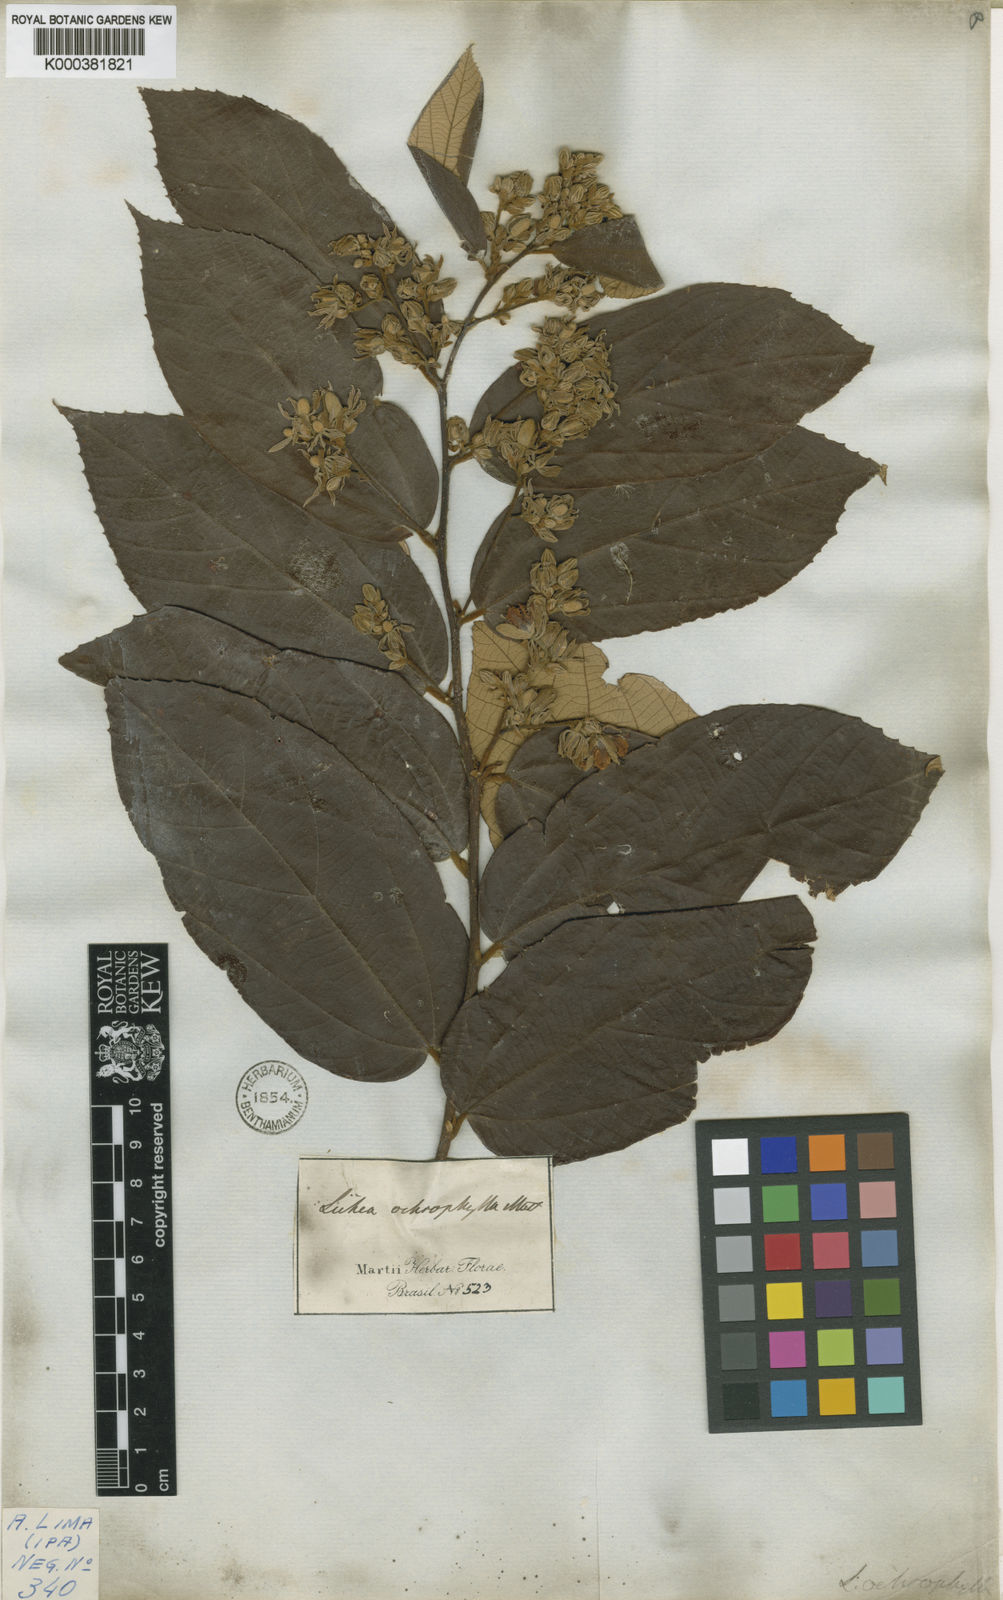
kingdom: Plantae
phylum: Tracheophyta
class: Magnoliopsida
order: Malvales
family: Malvaceae
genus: Luehea
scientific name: Luehea ochrophylla
